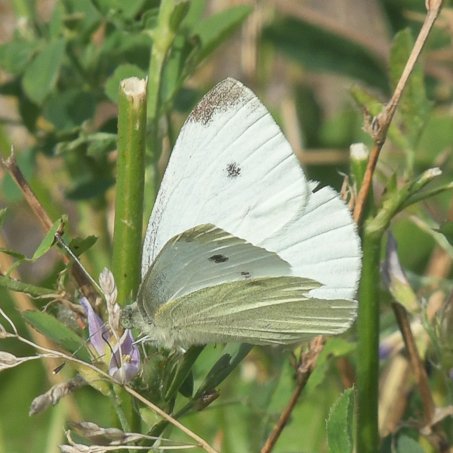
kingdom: Animalia
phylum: Arthropoda
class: Insecta
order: Lepidoptera
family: Pieridae
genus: Pieris
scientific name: Pieris rapae
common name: Cabbage White
